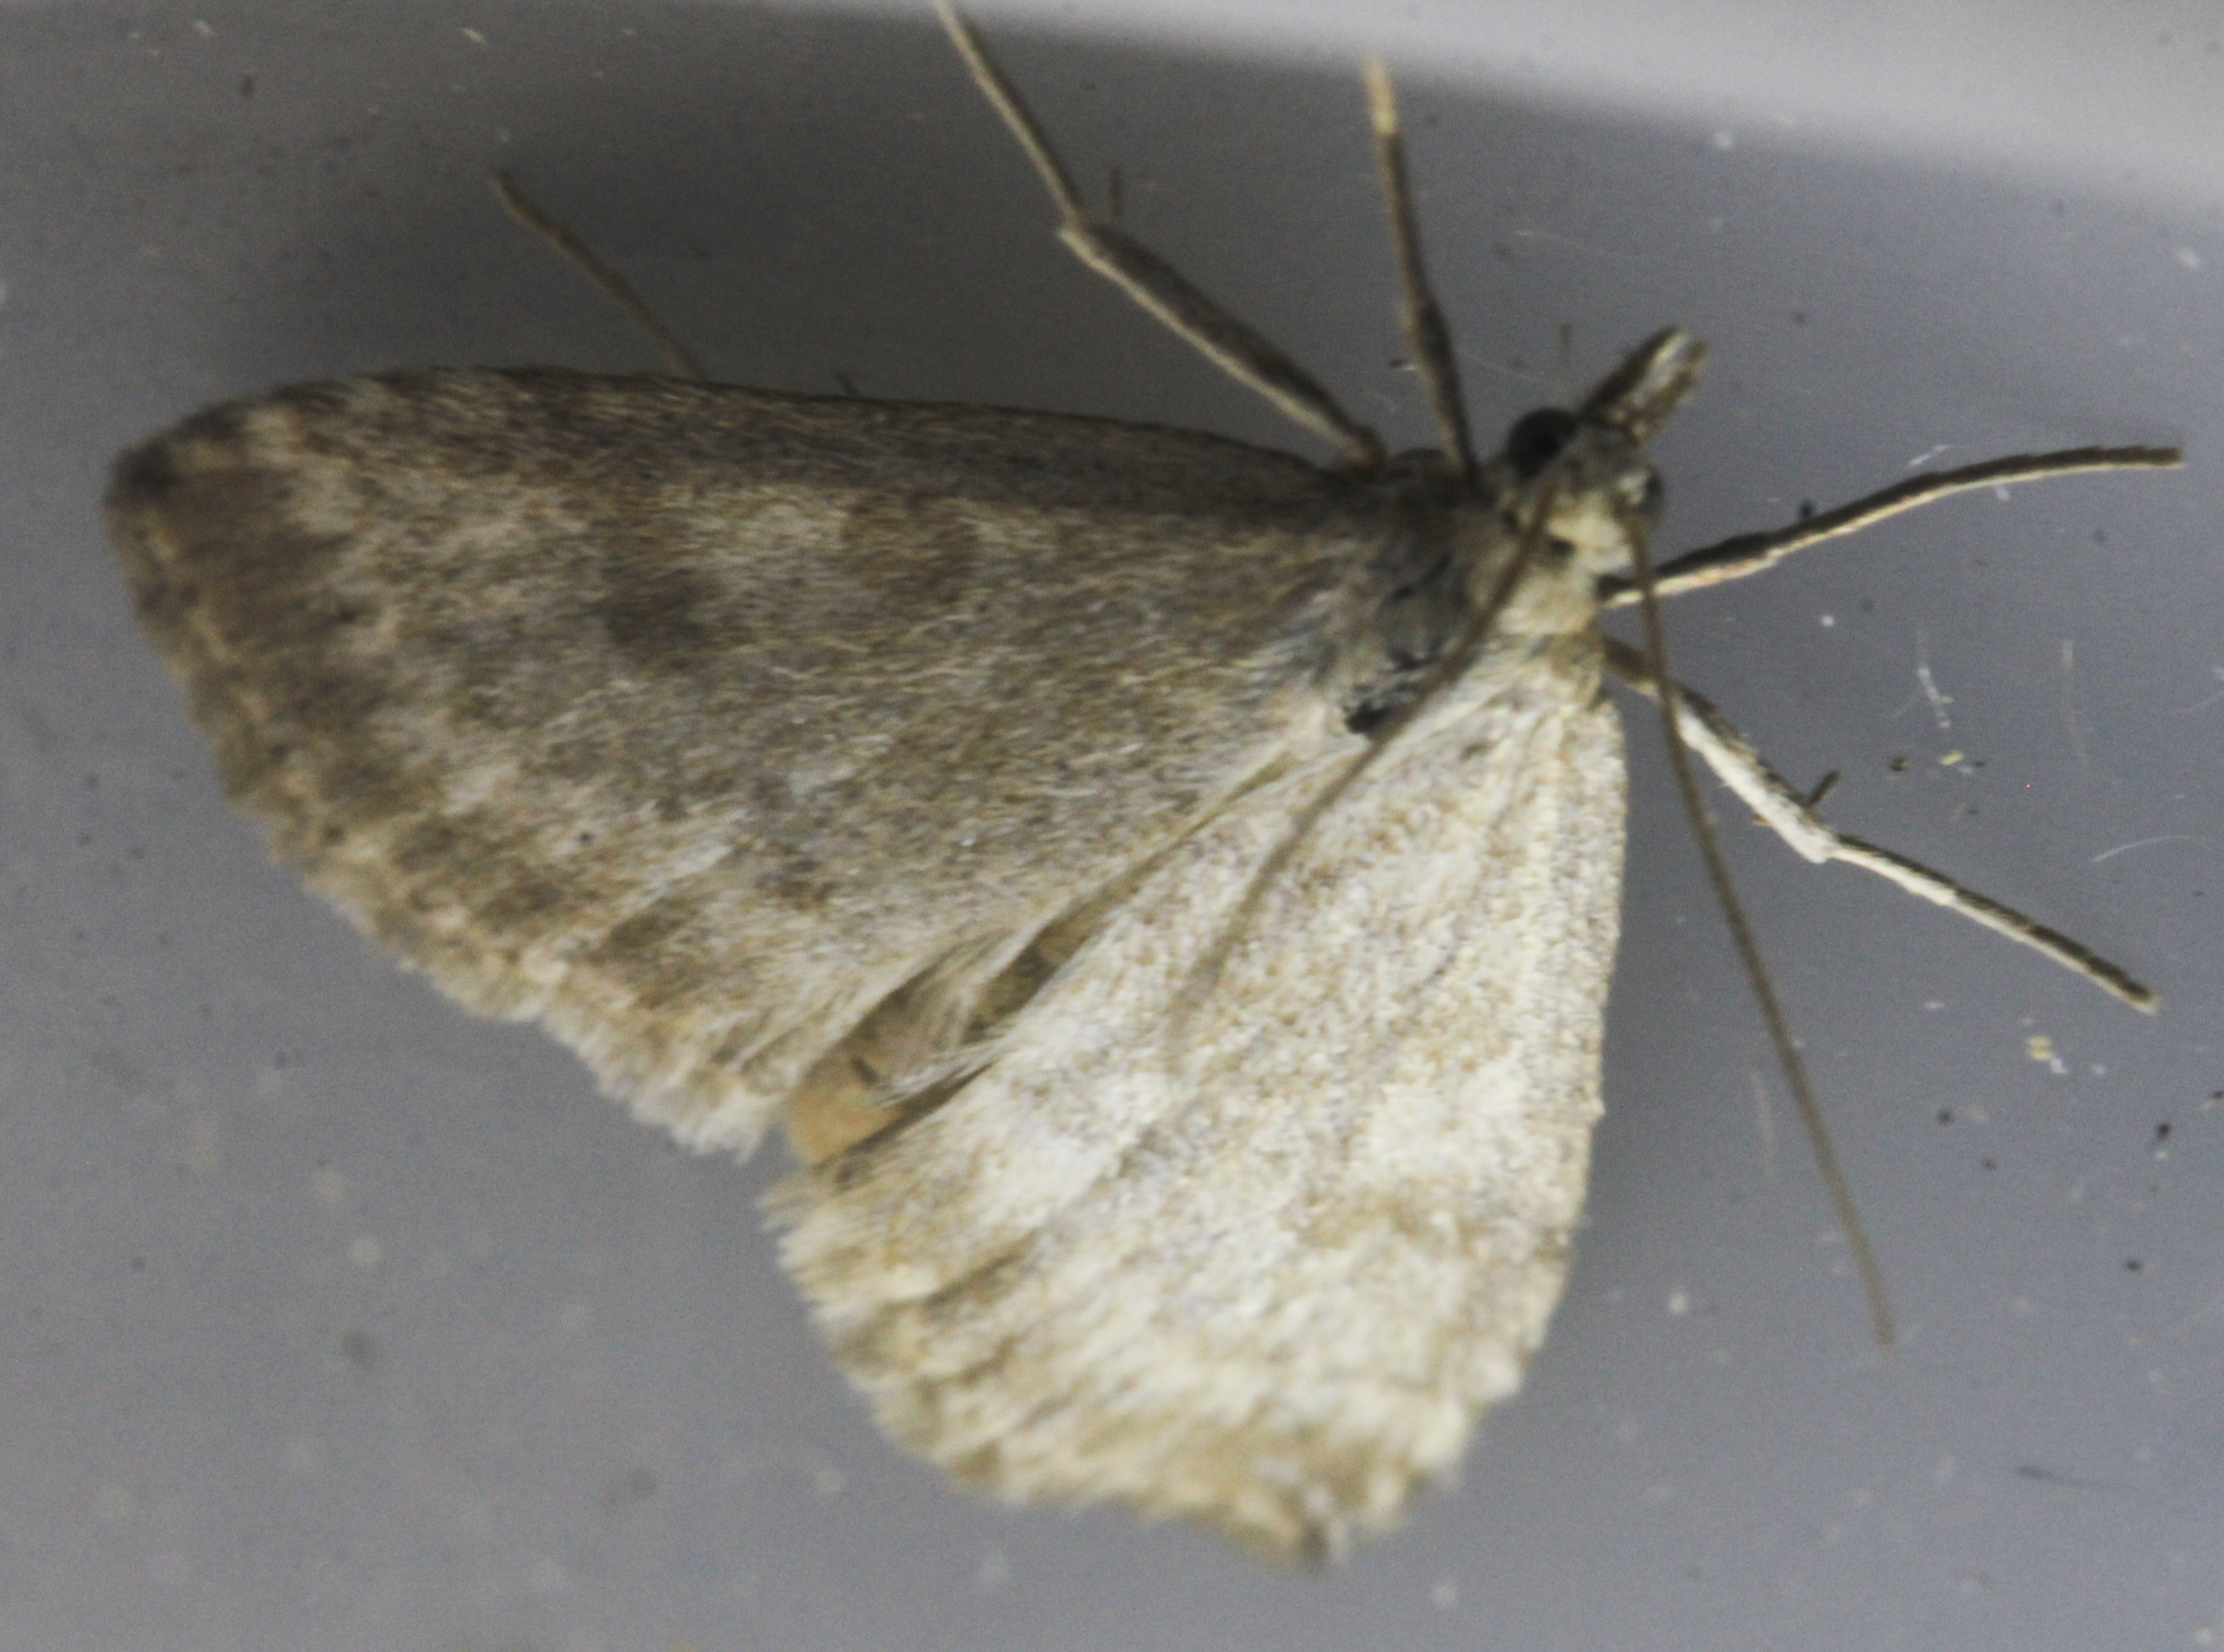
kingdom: Animalia
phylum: Arthropoda
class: Insecta
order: Lepidoptera
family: Crambidae
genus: Udea
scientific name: Udea decrepitalis
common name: Scotch pearl
